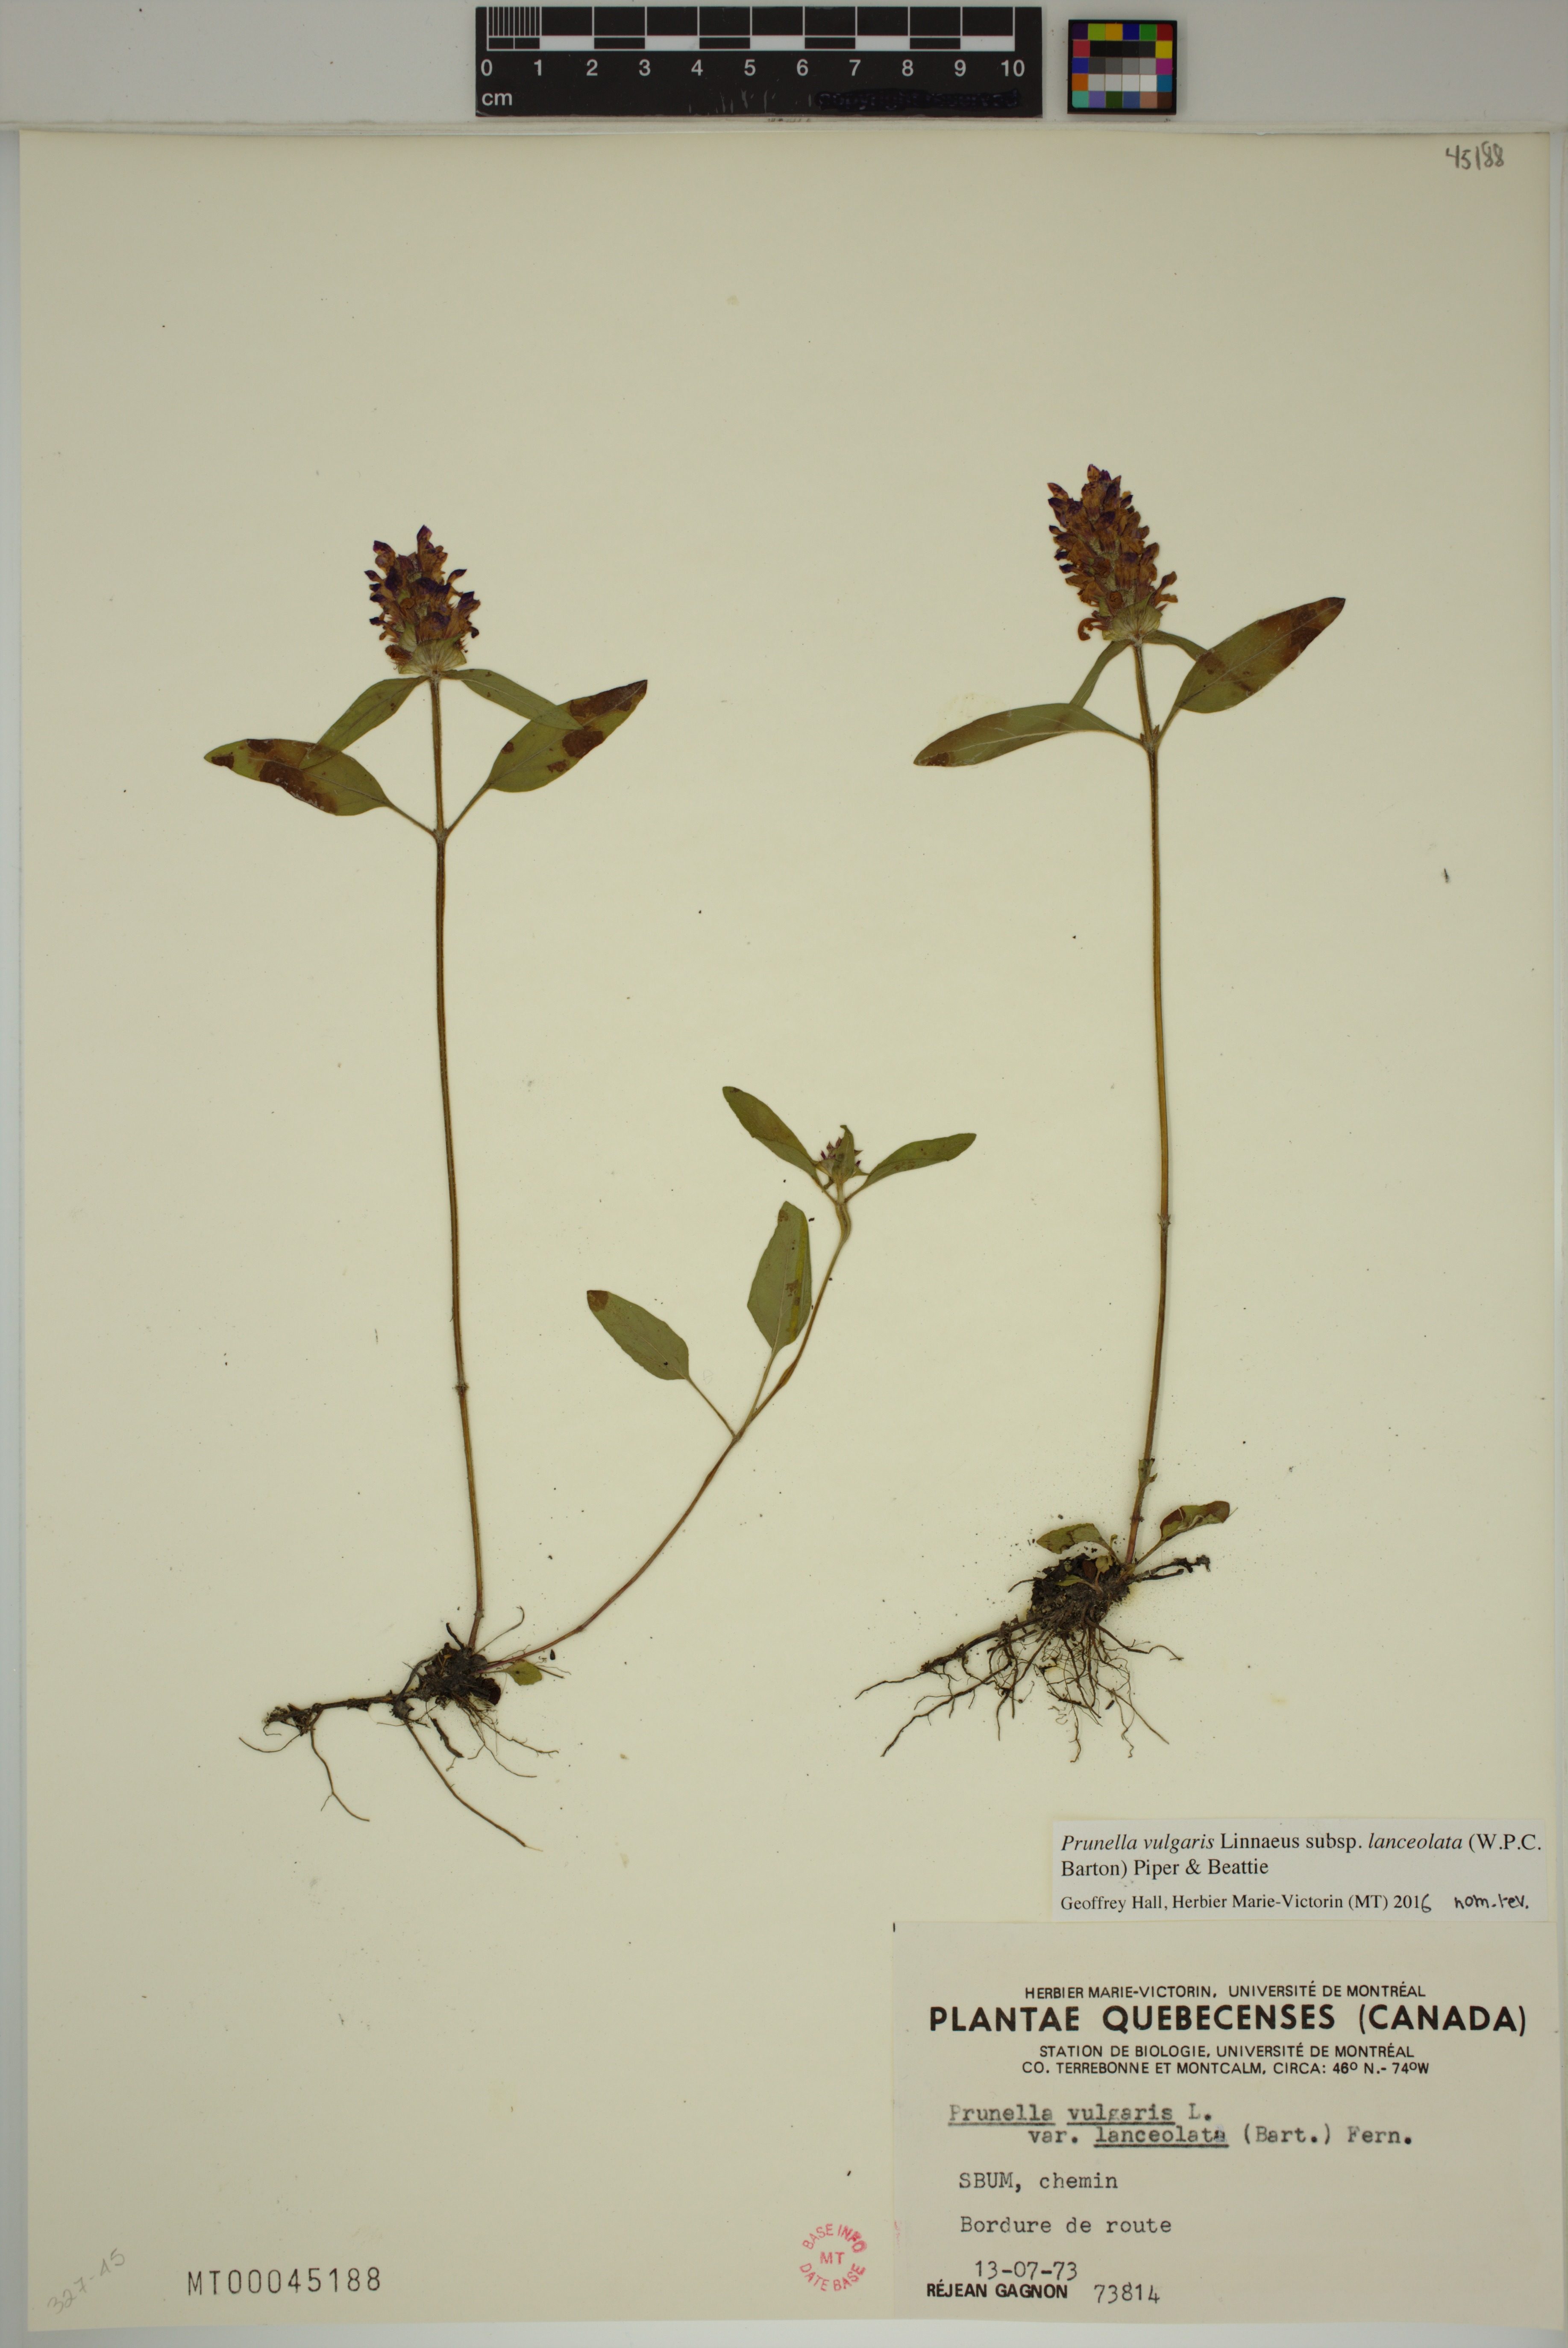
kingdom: Plantae
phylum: Tracheophyta
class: Magnoliopsida
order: Lamiales
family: Lamiaceae
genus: Prunella
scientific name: Prunella vulgaris
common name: Heal-all
